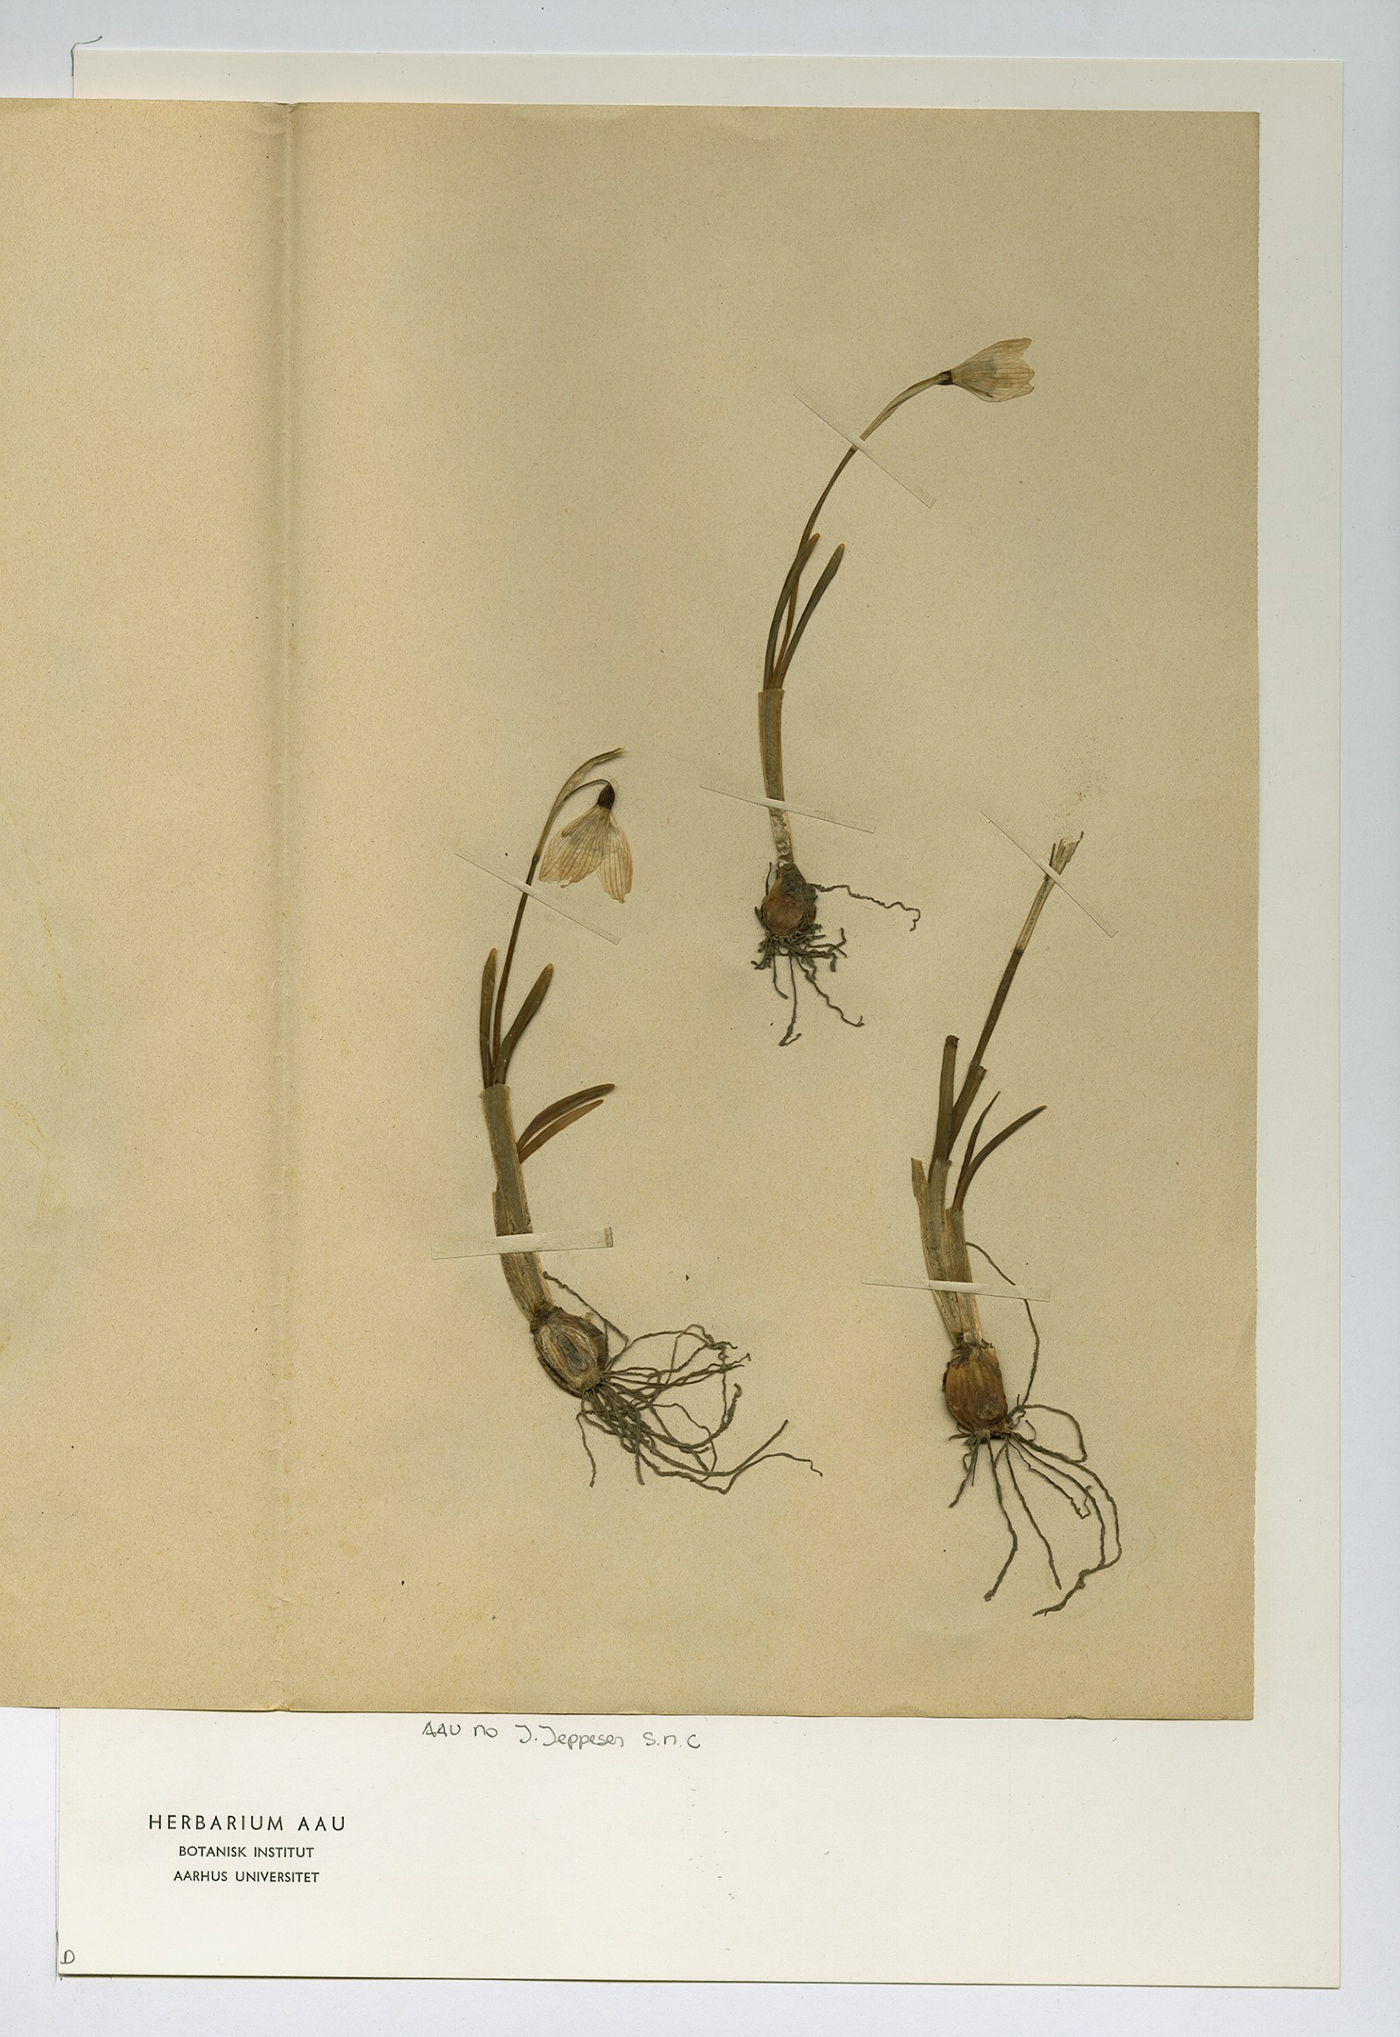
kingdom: Plantae
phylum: Tracheophyta
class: Liliopsida
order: Asparagales
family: Amaryllidaceae
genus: Galanthus
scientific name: Galanthus nivalis
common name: Snowdrop
